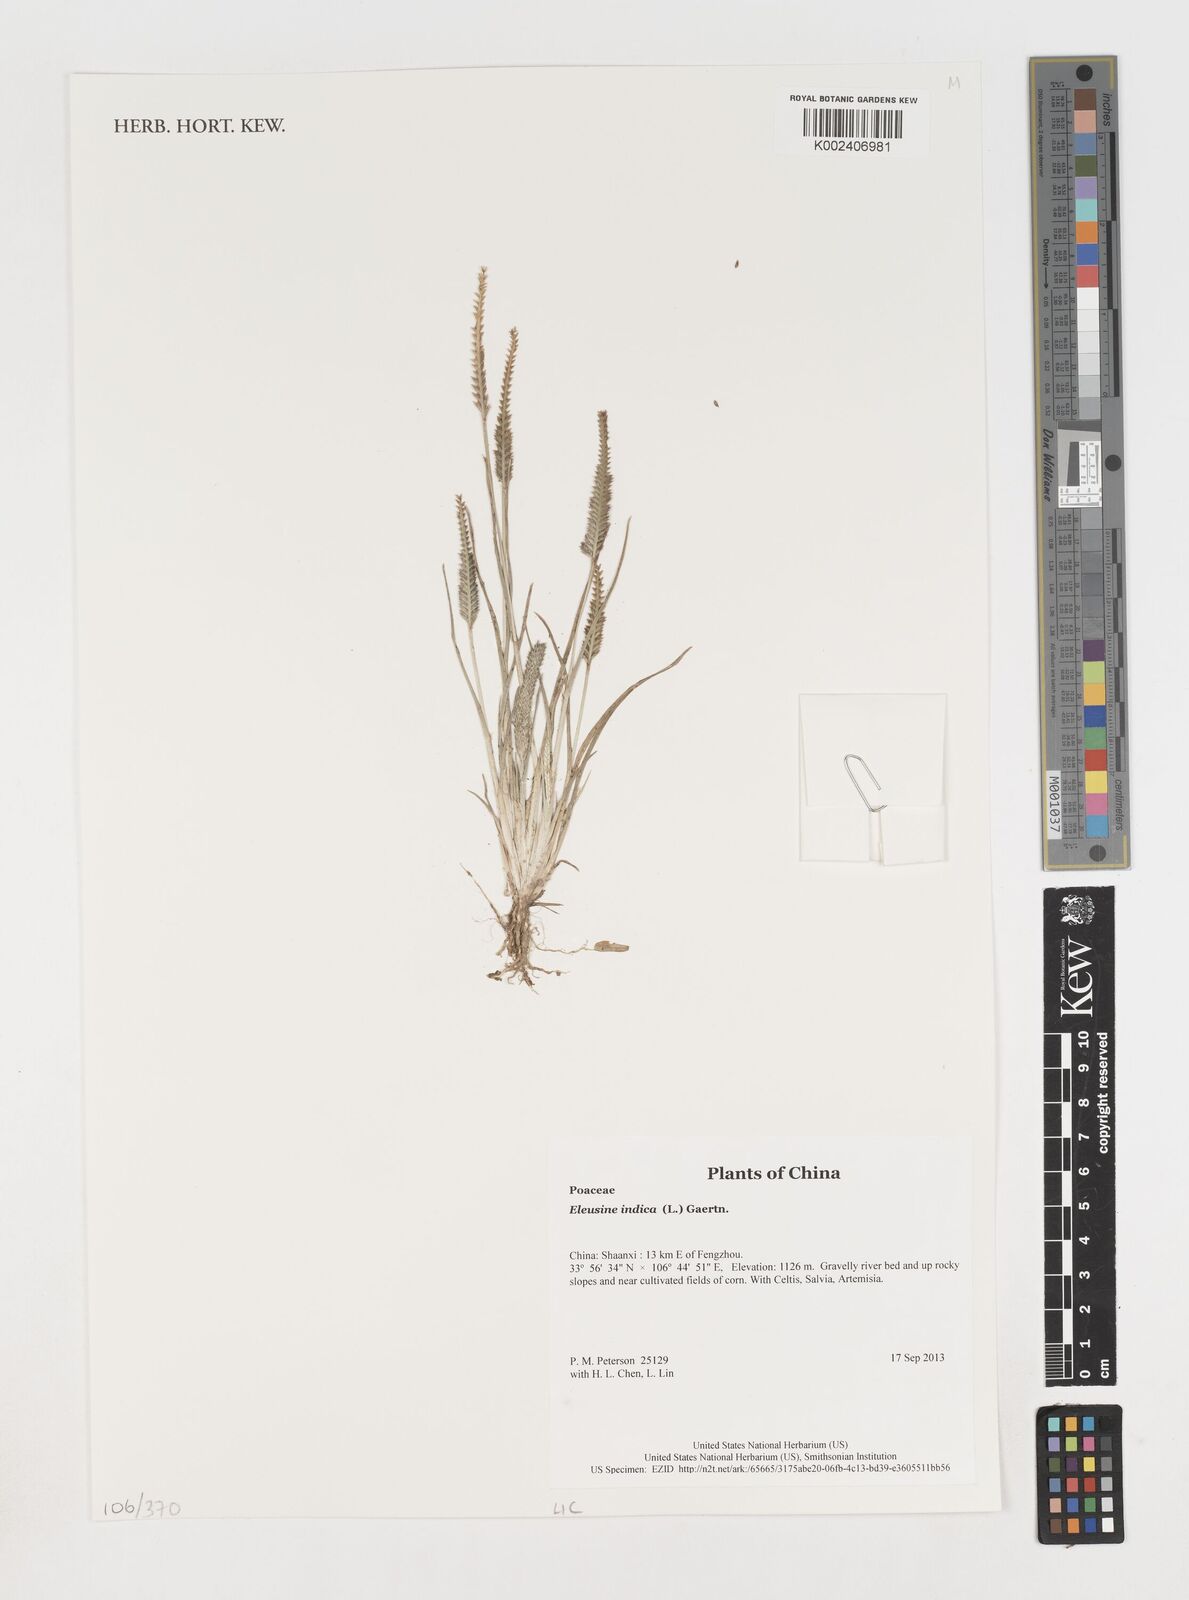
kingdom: Plantae
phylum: Tracheophyta
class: Liliopsida
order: Poales
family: Poaceae
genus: Eleusine
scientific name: Eleusine indica
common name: Yard-grass
